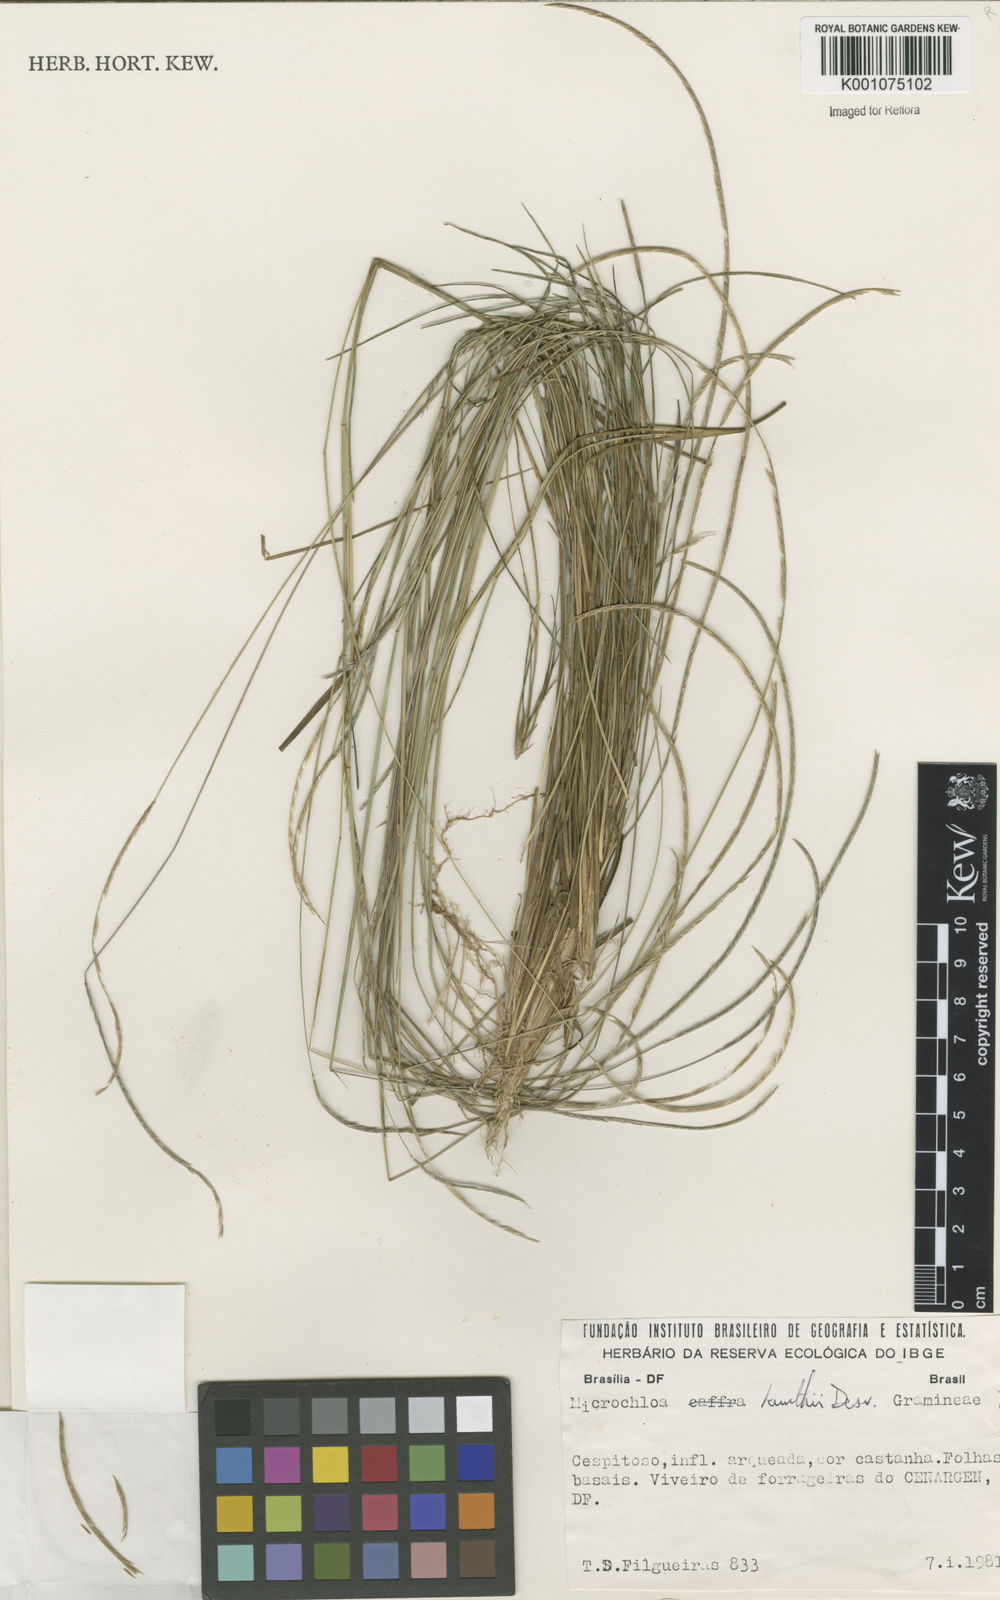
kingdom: Plantae
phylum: Tracheophyta
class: Liliopsida
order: Poales
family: Poaceae
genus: Microchloa
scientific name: Microchloa kunthii
